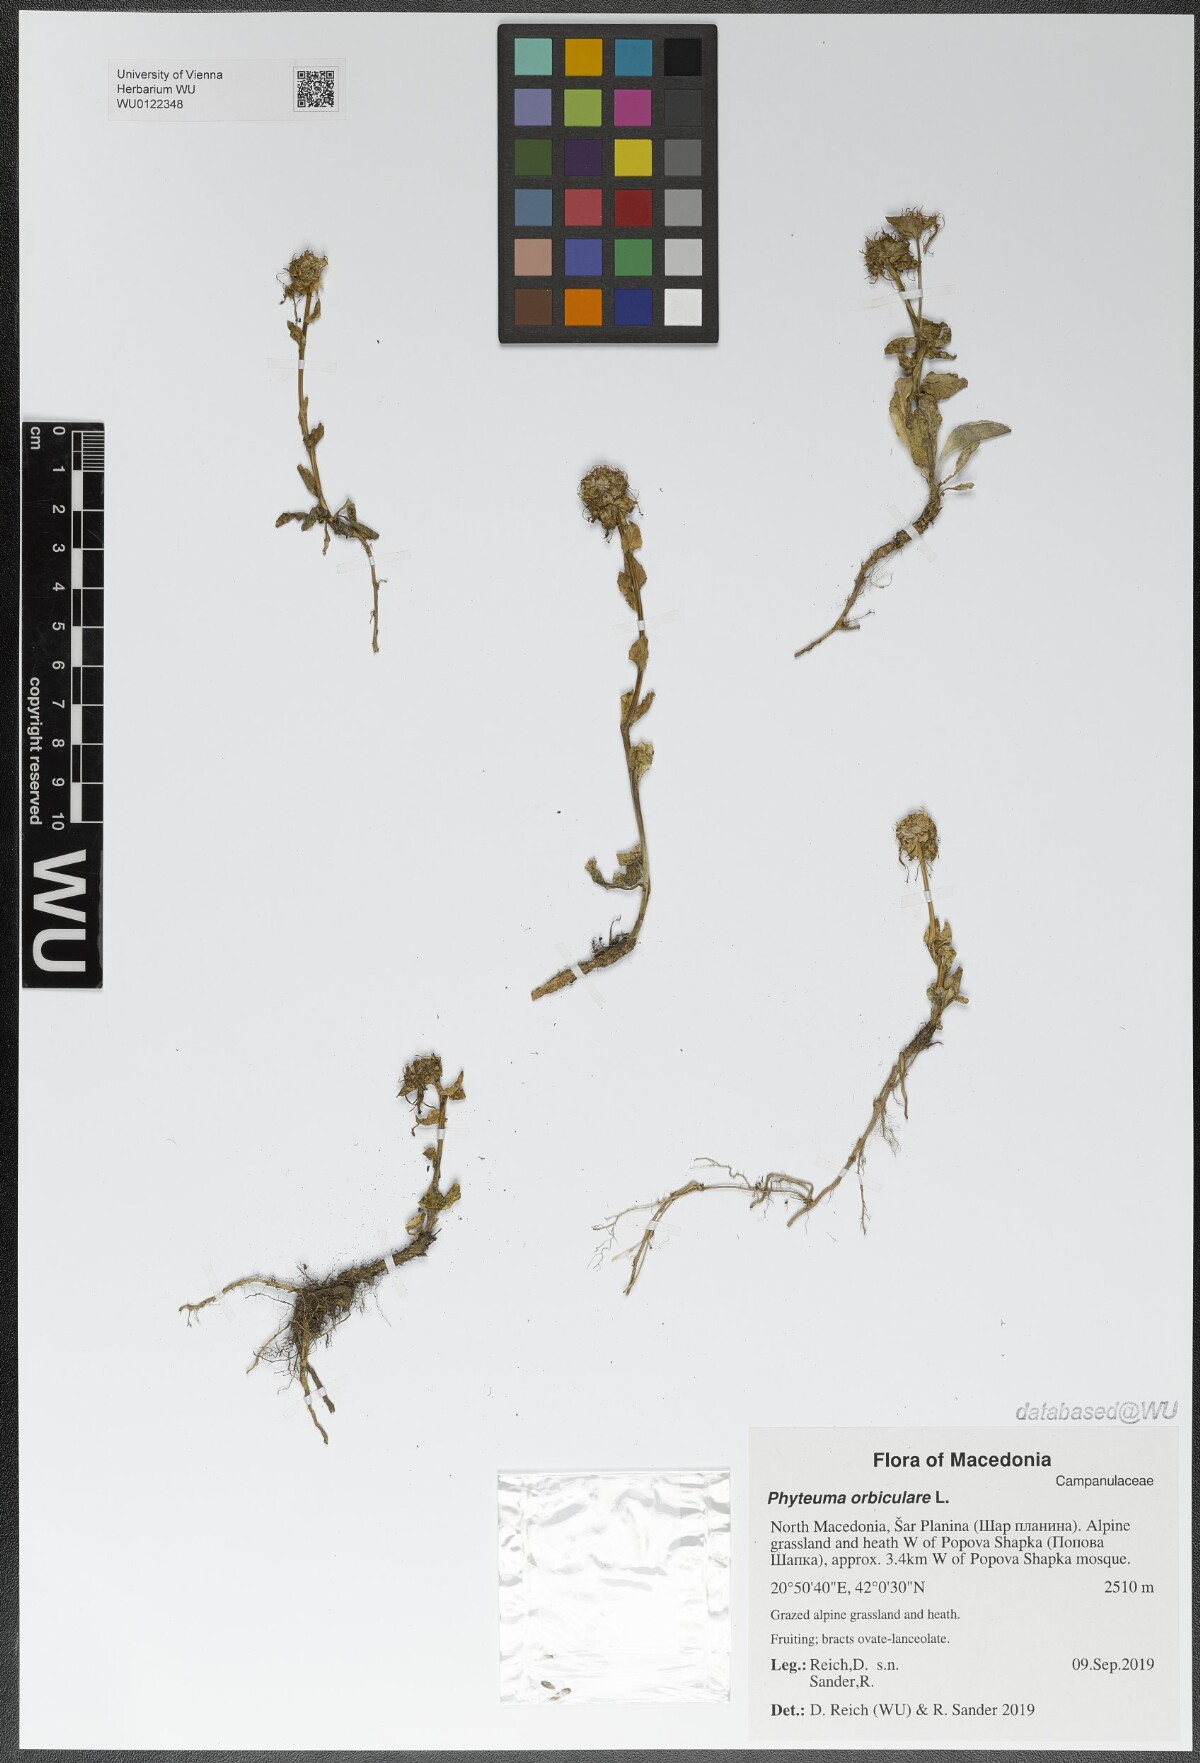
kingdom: Plantae
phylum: Tracheophyta
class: Magnoliopsida
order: Asterales
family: Campanulaceae
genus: Phyteuma
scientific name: Phyteuma orbiculare
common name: Round-headed rampion
